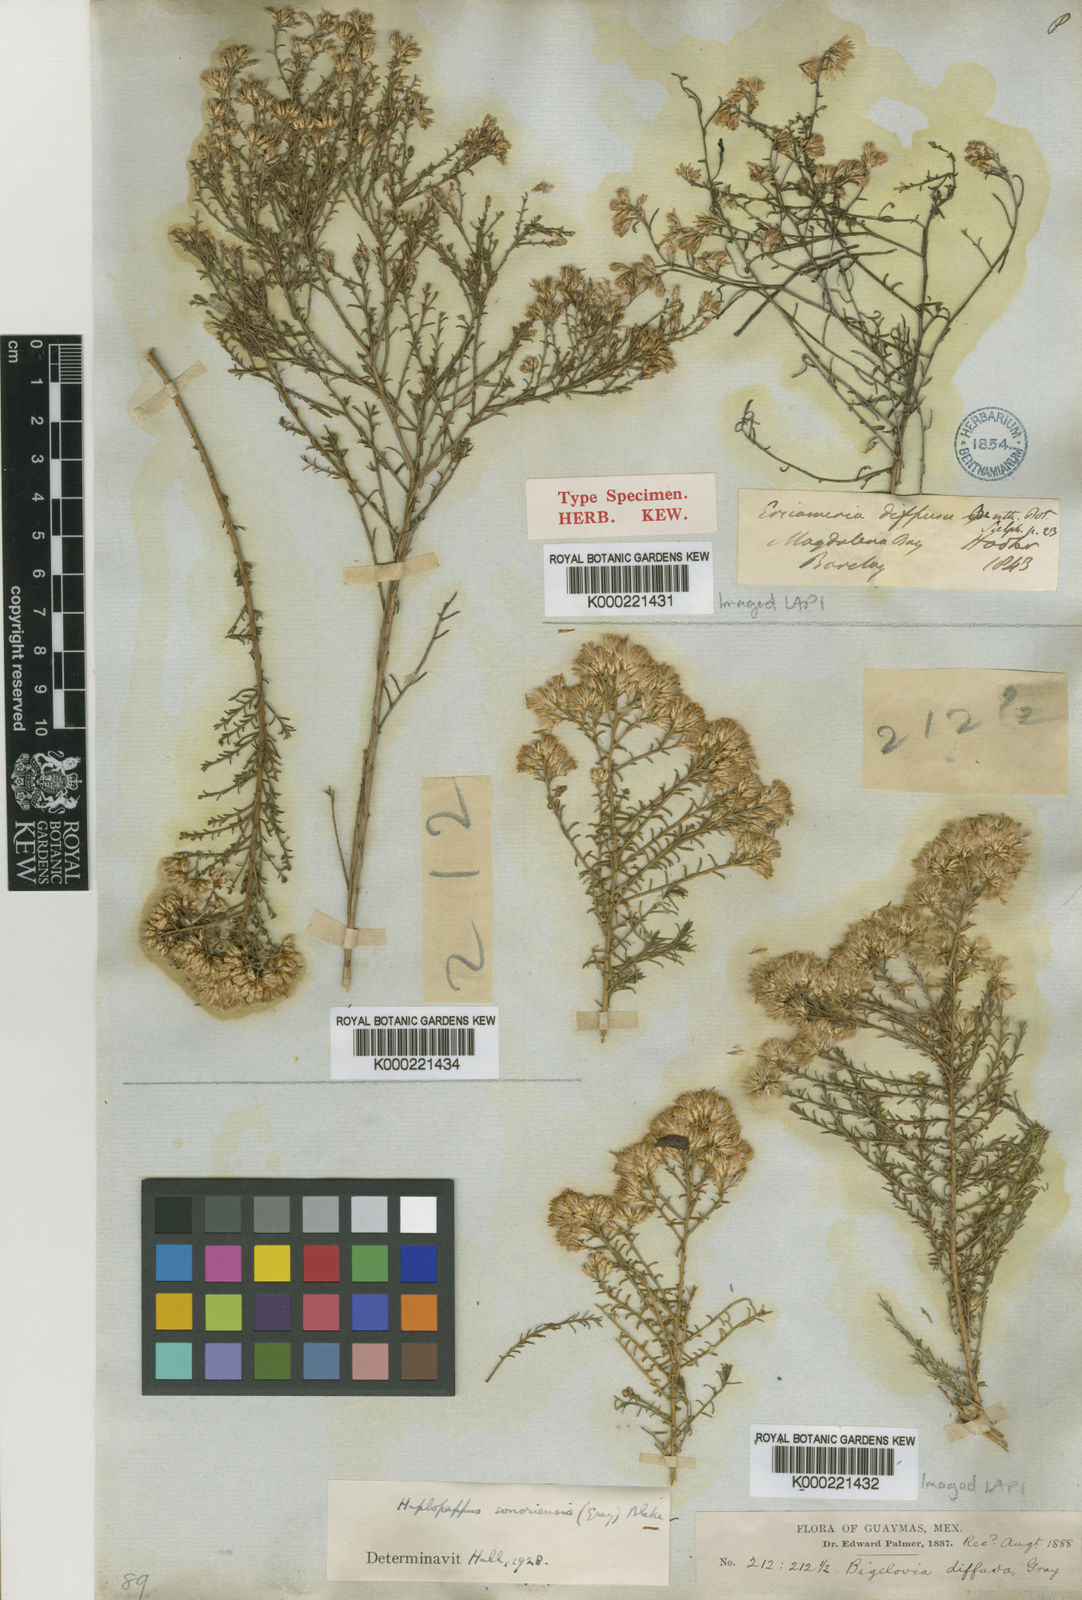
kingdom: Plantae
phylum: Tracheophyta
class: Magnoliopsida
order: Asterales
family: Asteraceae
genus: Haplopappus
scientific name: Haplopappus
